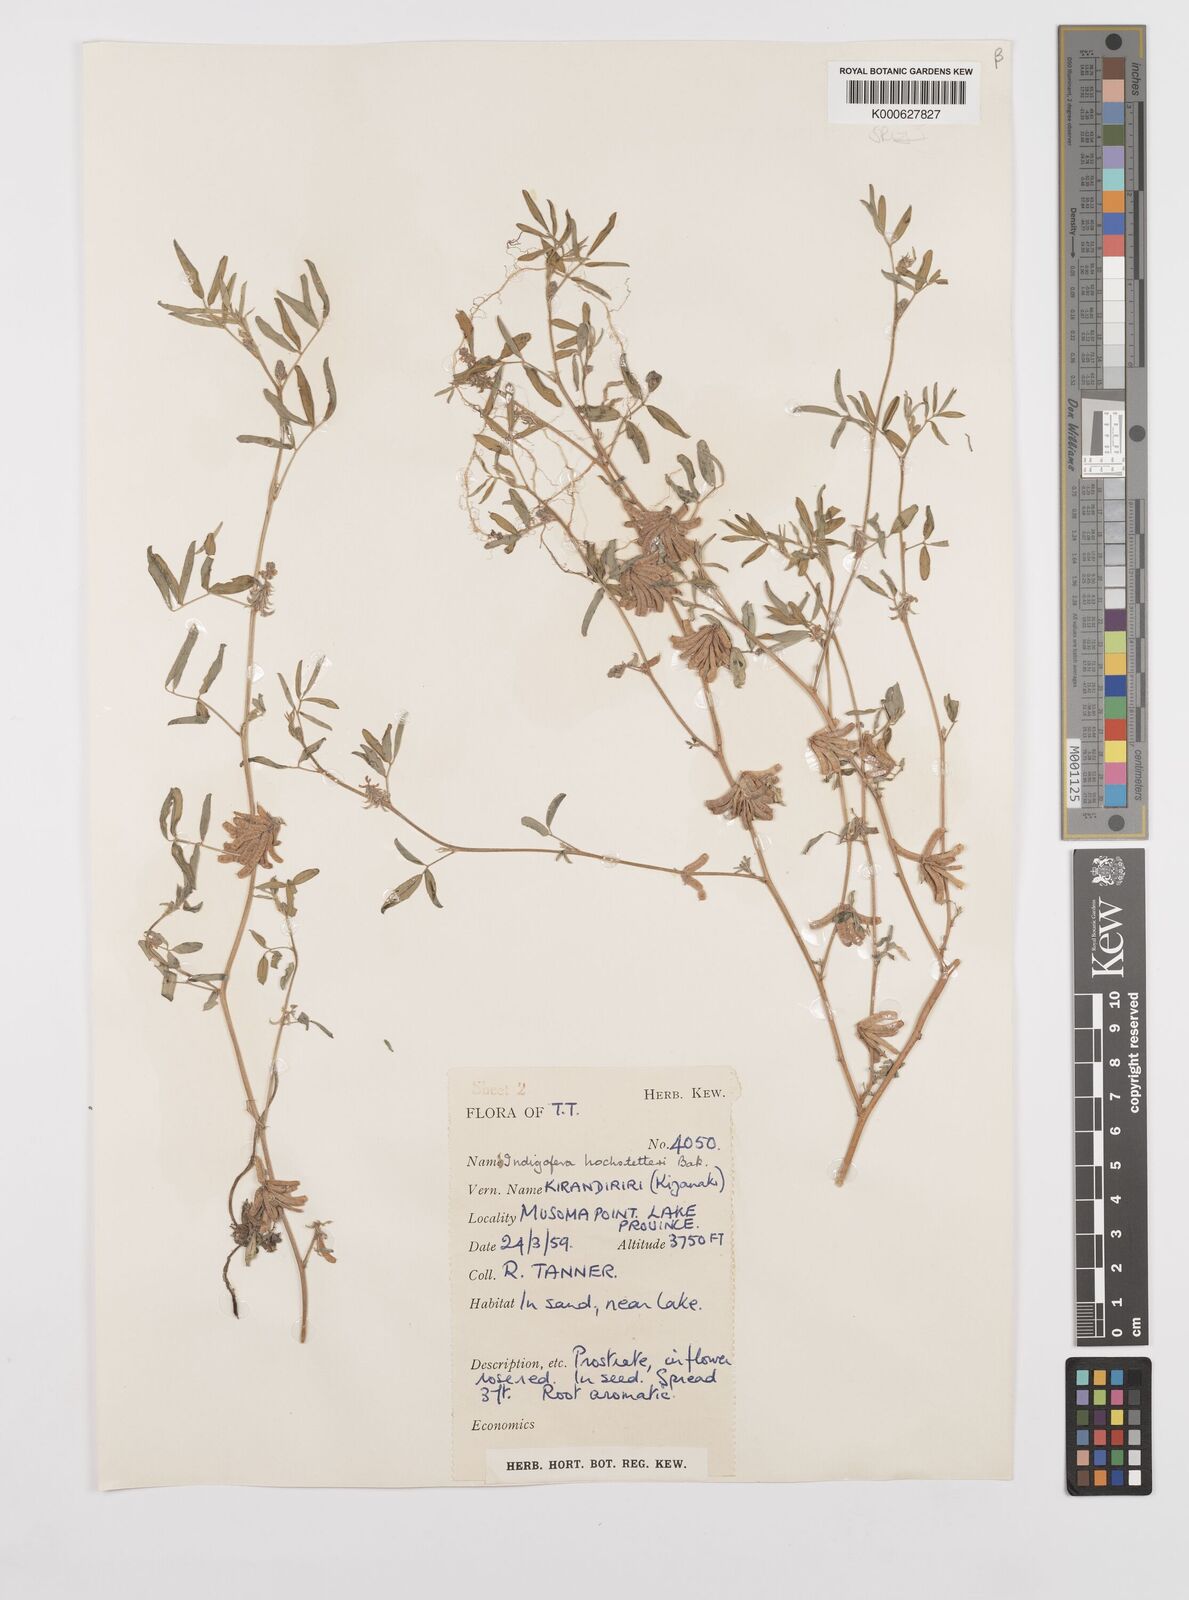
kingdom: Plantae
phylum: Tracheophyta
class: Magnoliopsida
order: Fabales
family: Fabaceae
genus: Indigofera
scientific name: Indigofera hochstetteri
